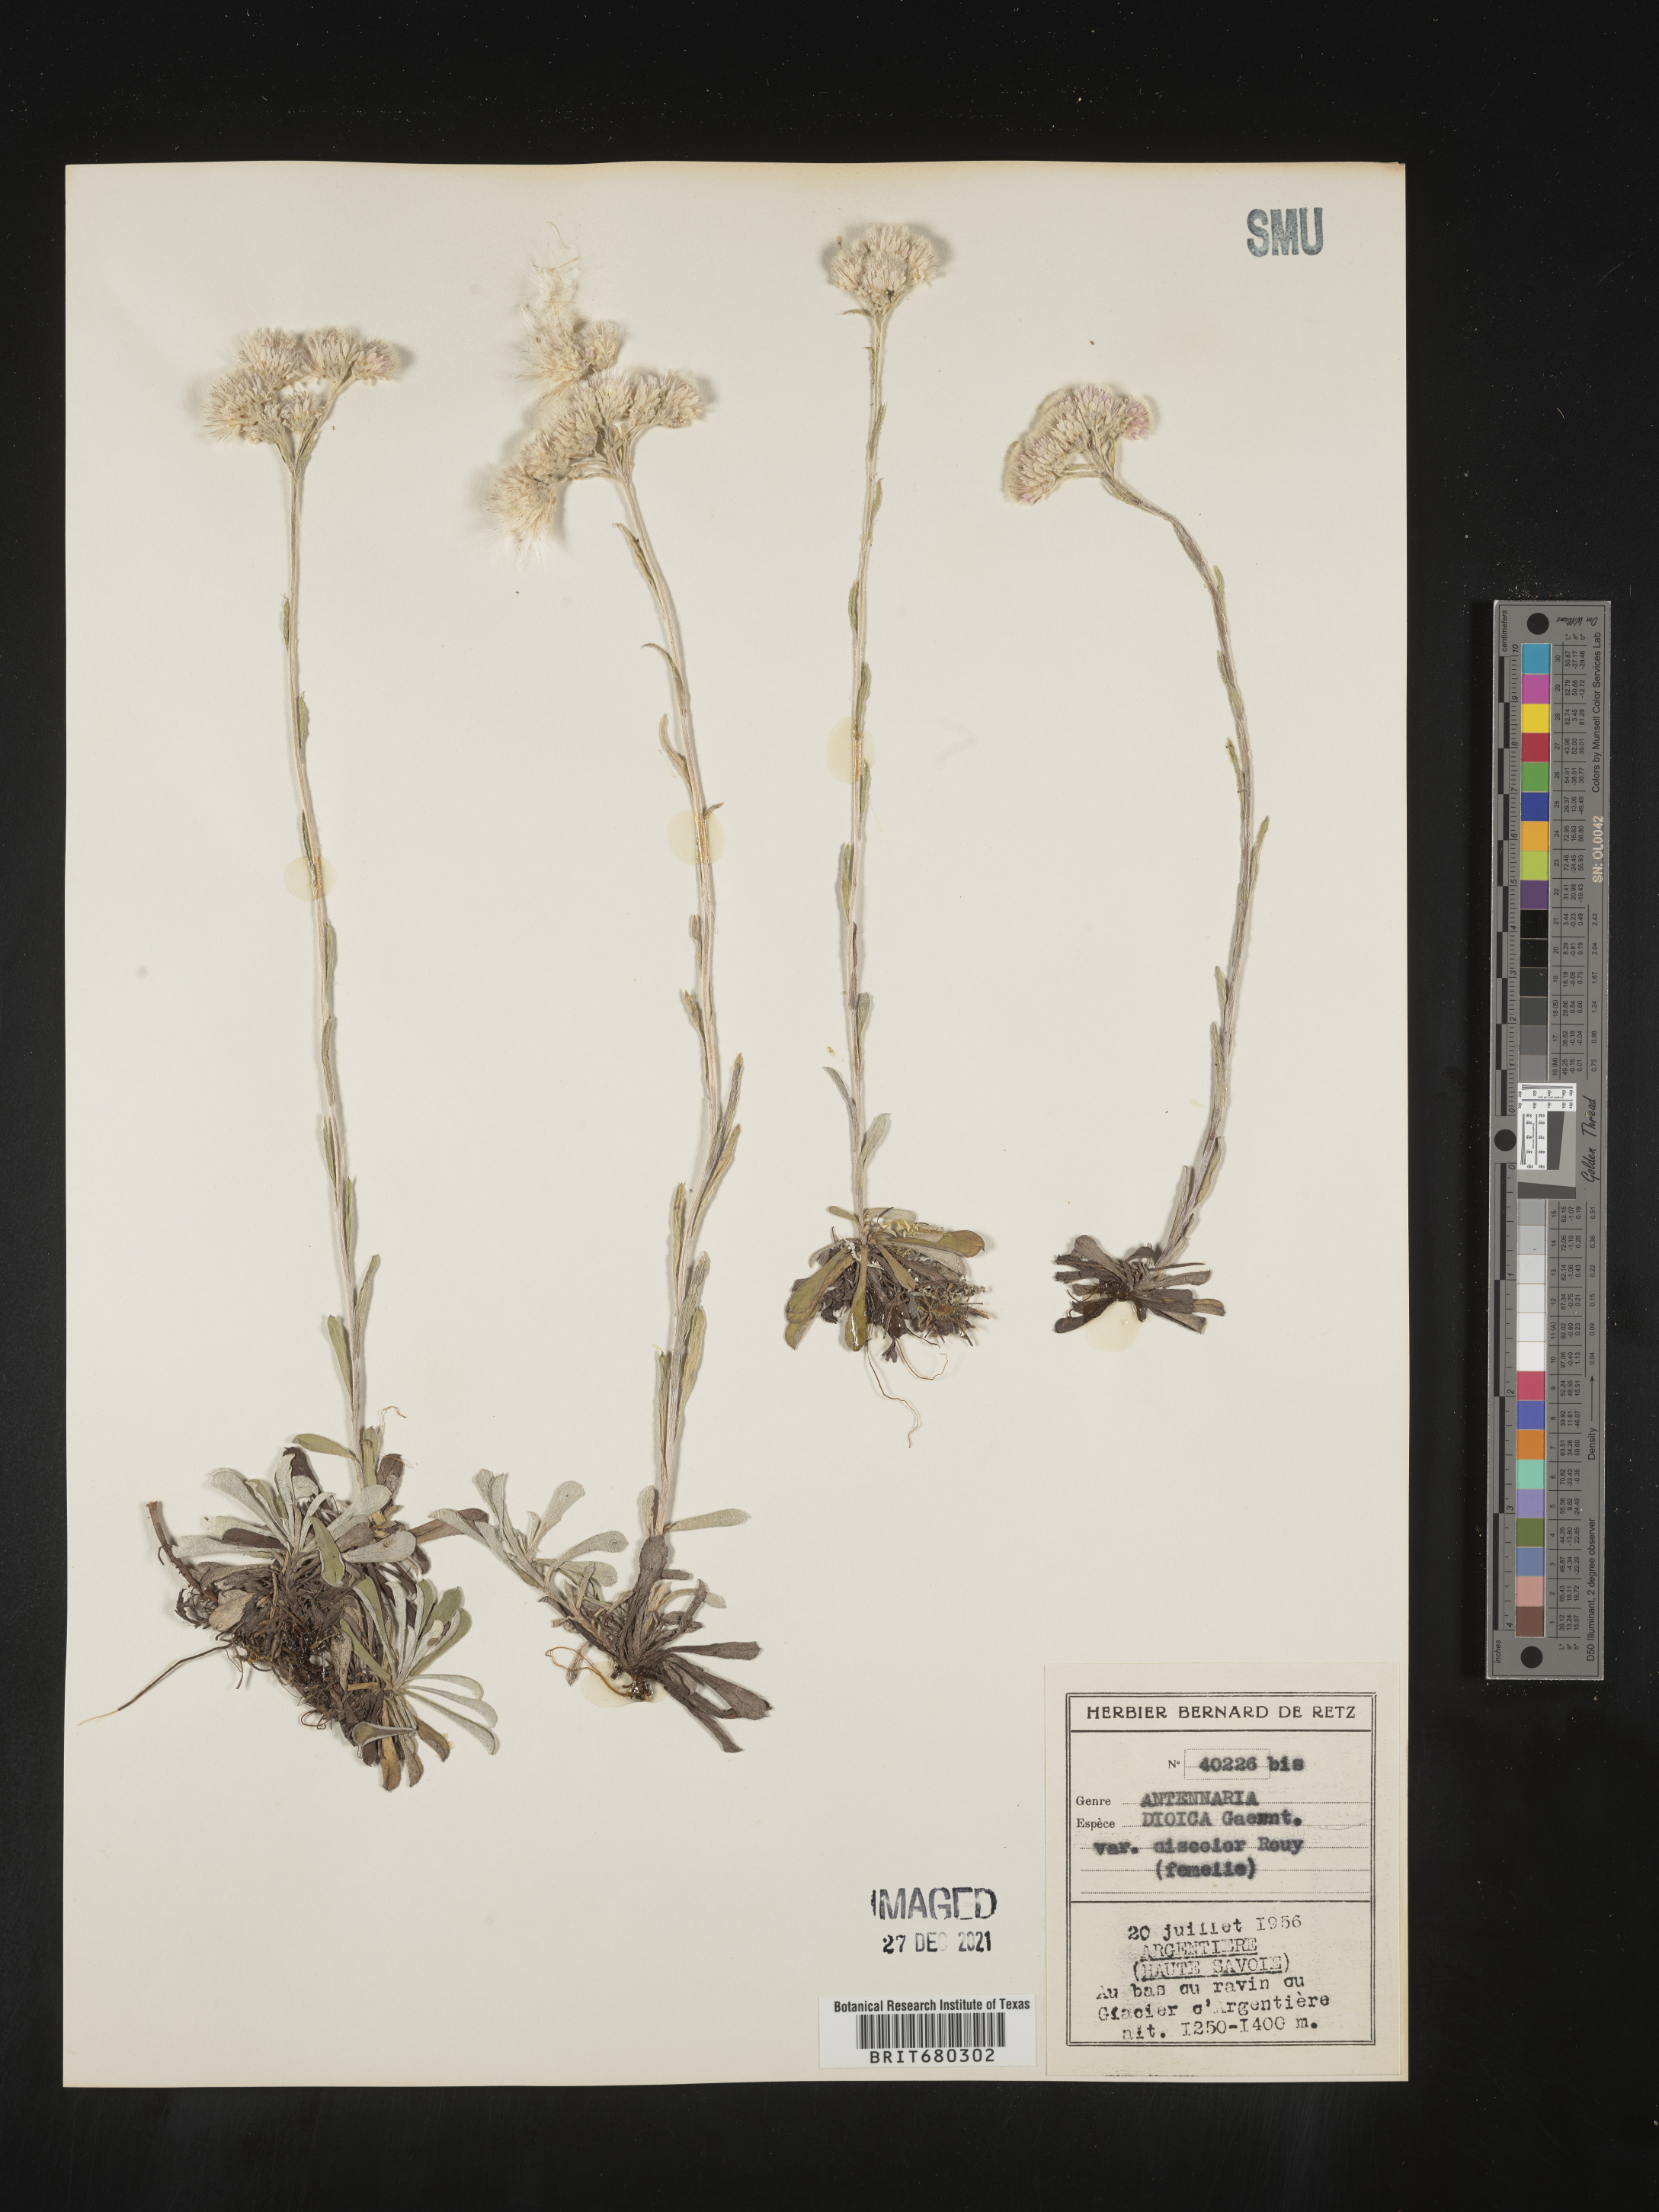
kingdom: Plantae
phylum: Tracheophyta
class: Magnoliopsida
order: Asterales
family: Asteraceae
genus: Antennaria
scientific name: Antennaria dioica
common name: Mountain everlasting
